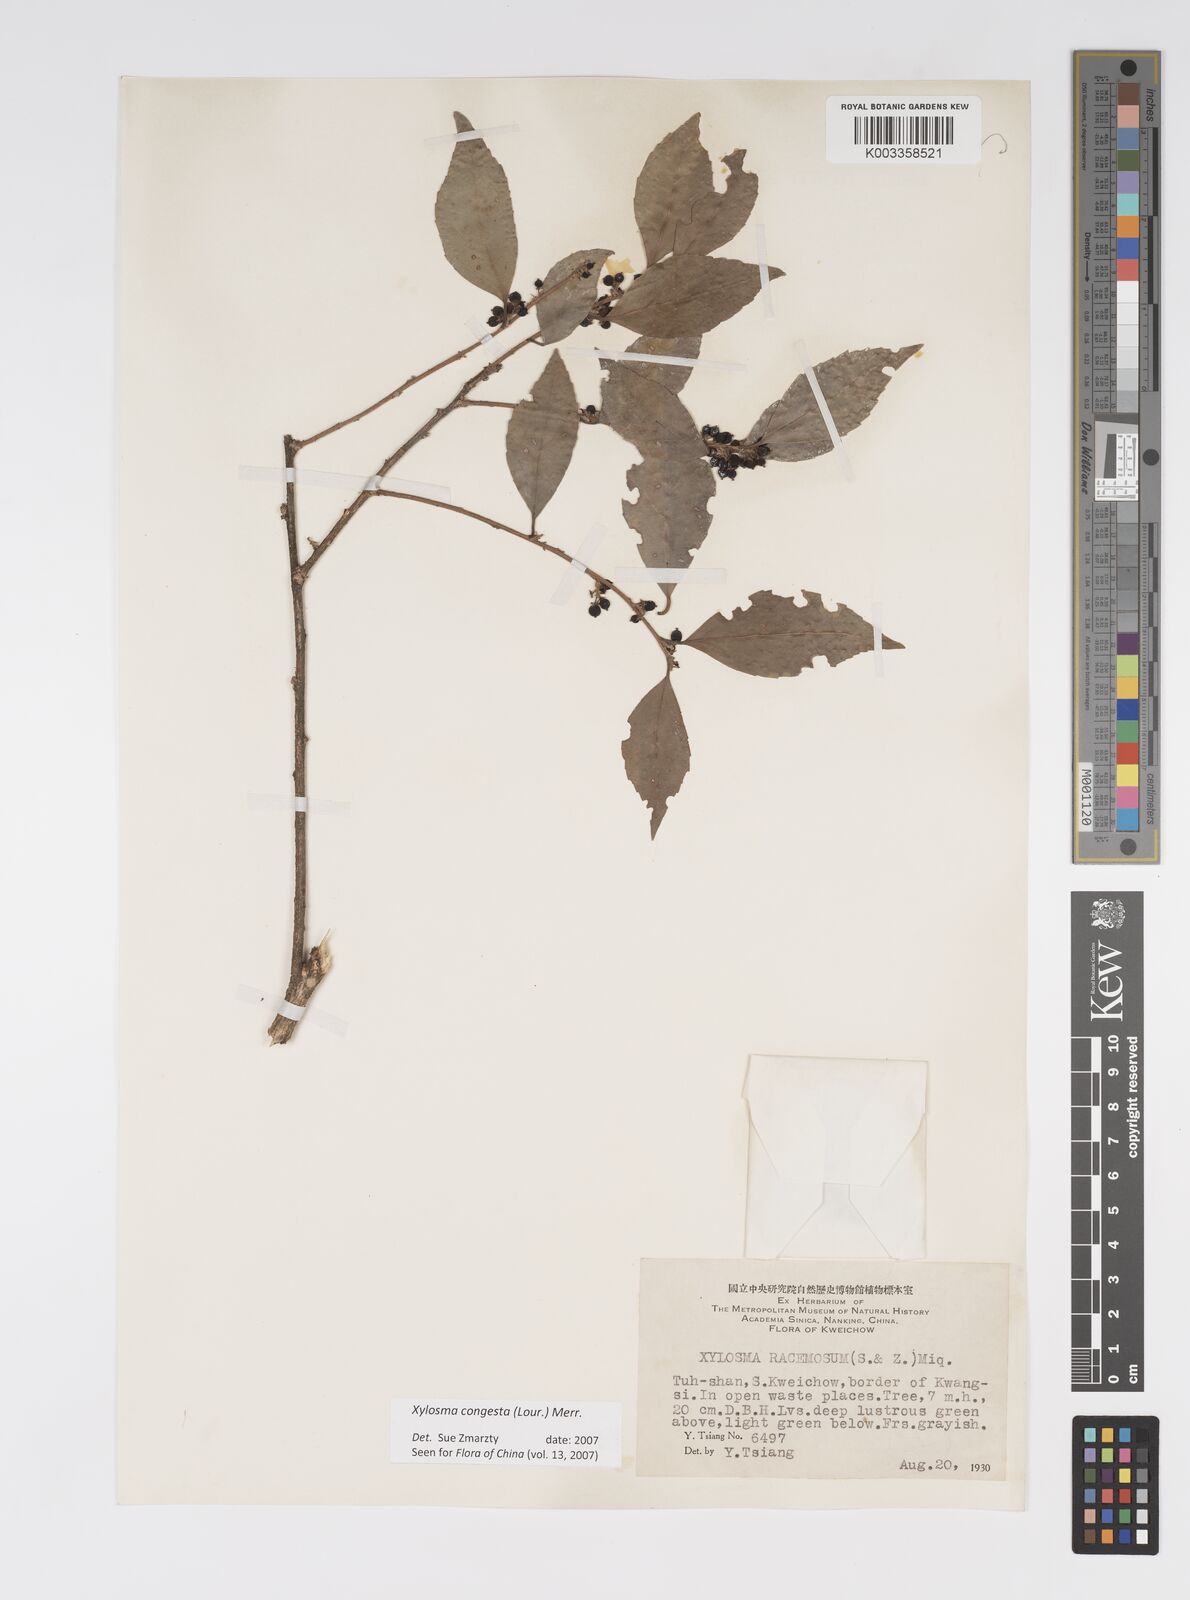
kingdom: Plantae
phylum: Tracheophyta
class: Magnoliopsida
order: Malpighiales
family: Salicaceae
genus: Xylosma
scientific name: Xylosma racemosum
